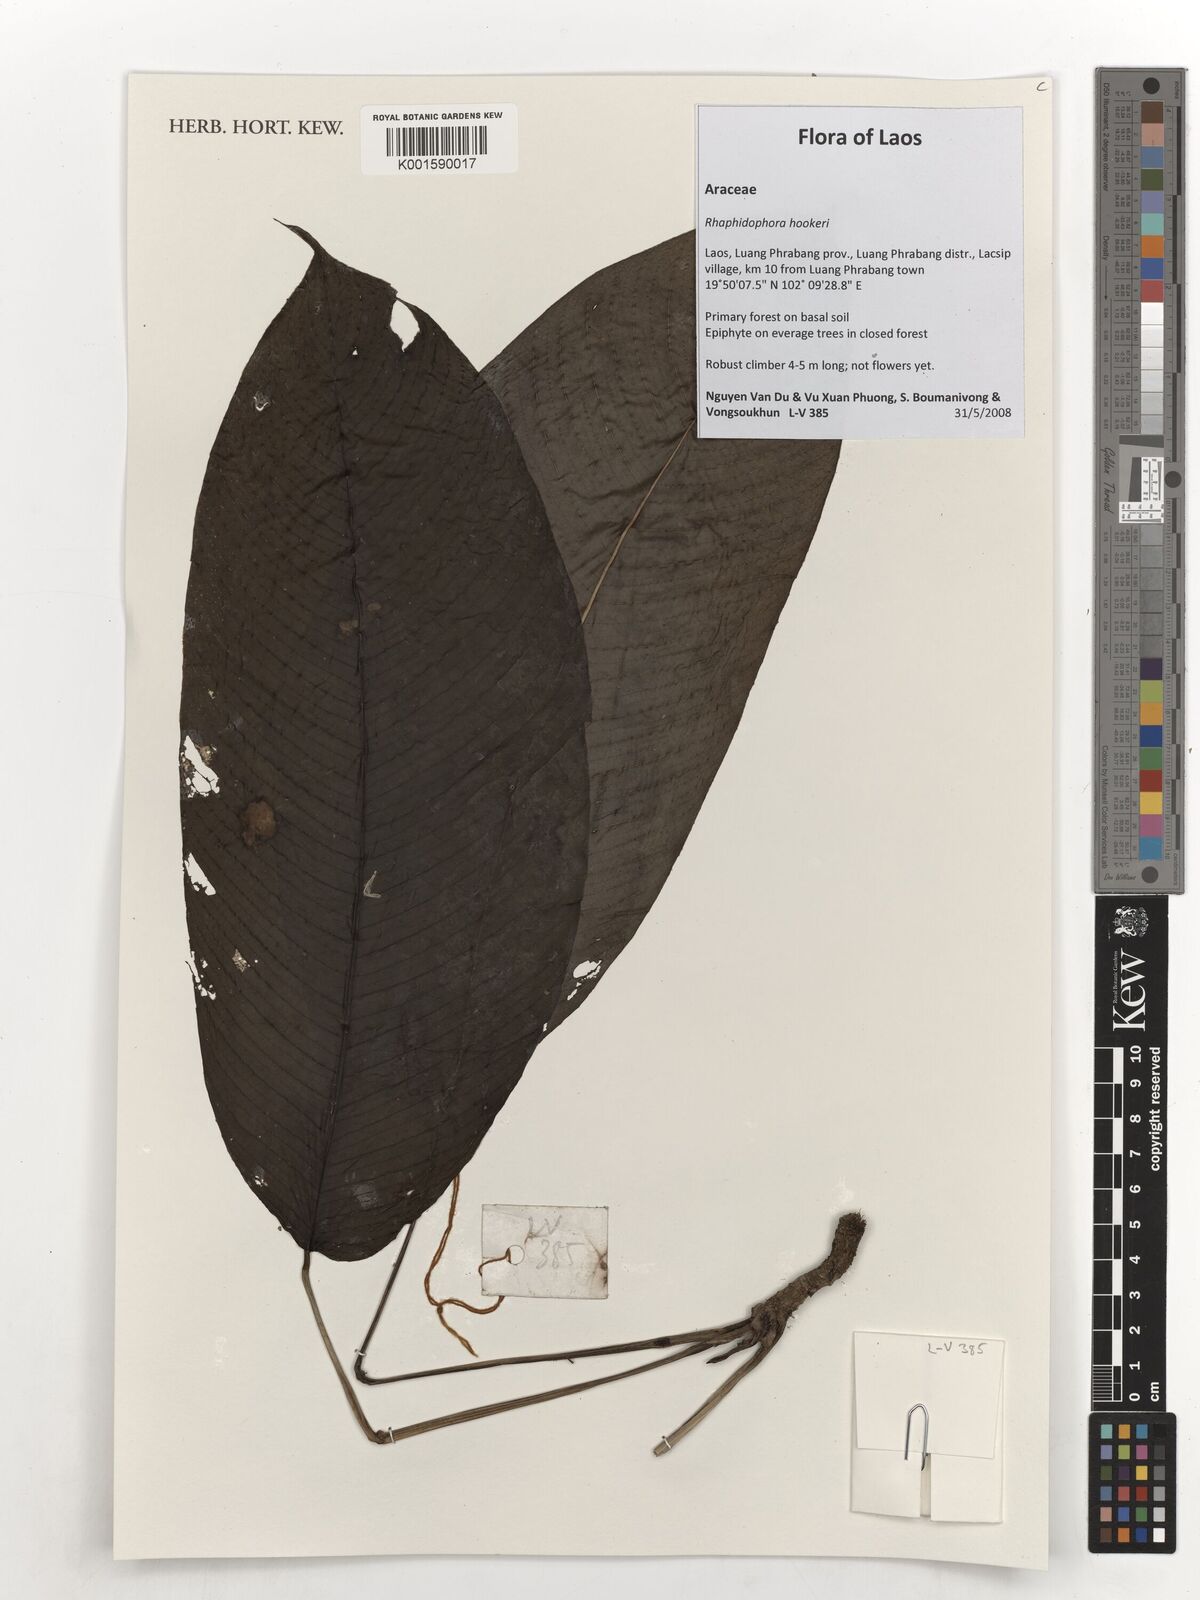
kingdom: Plantae
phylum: Tracheophyta
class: Liliopsida
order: Alismatales
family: Araceae
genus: Rhaphidophora
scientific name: Rhaphidophora hookeri
